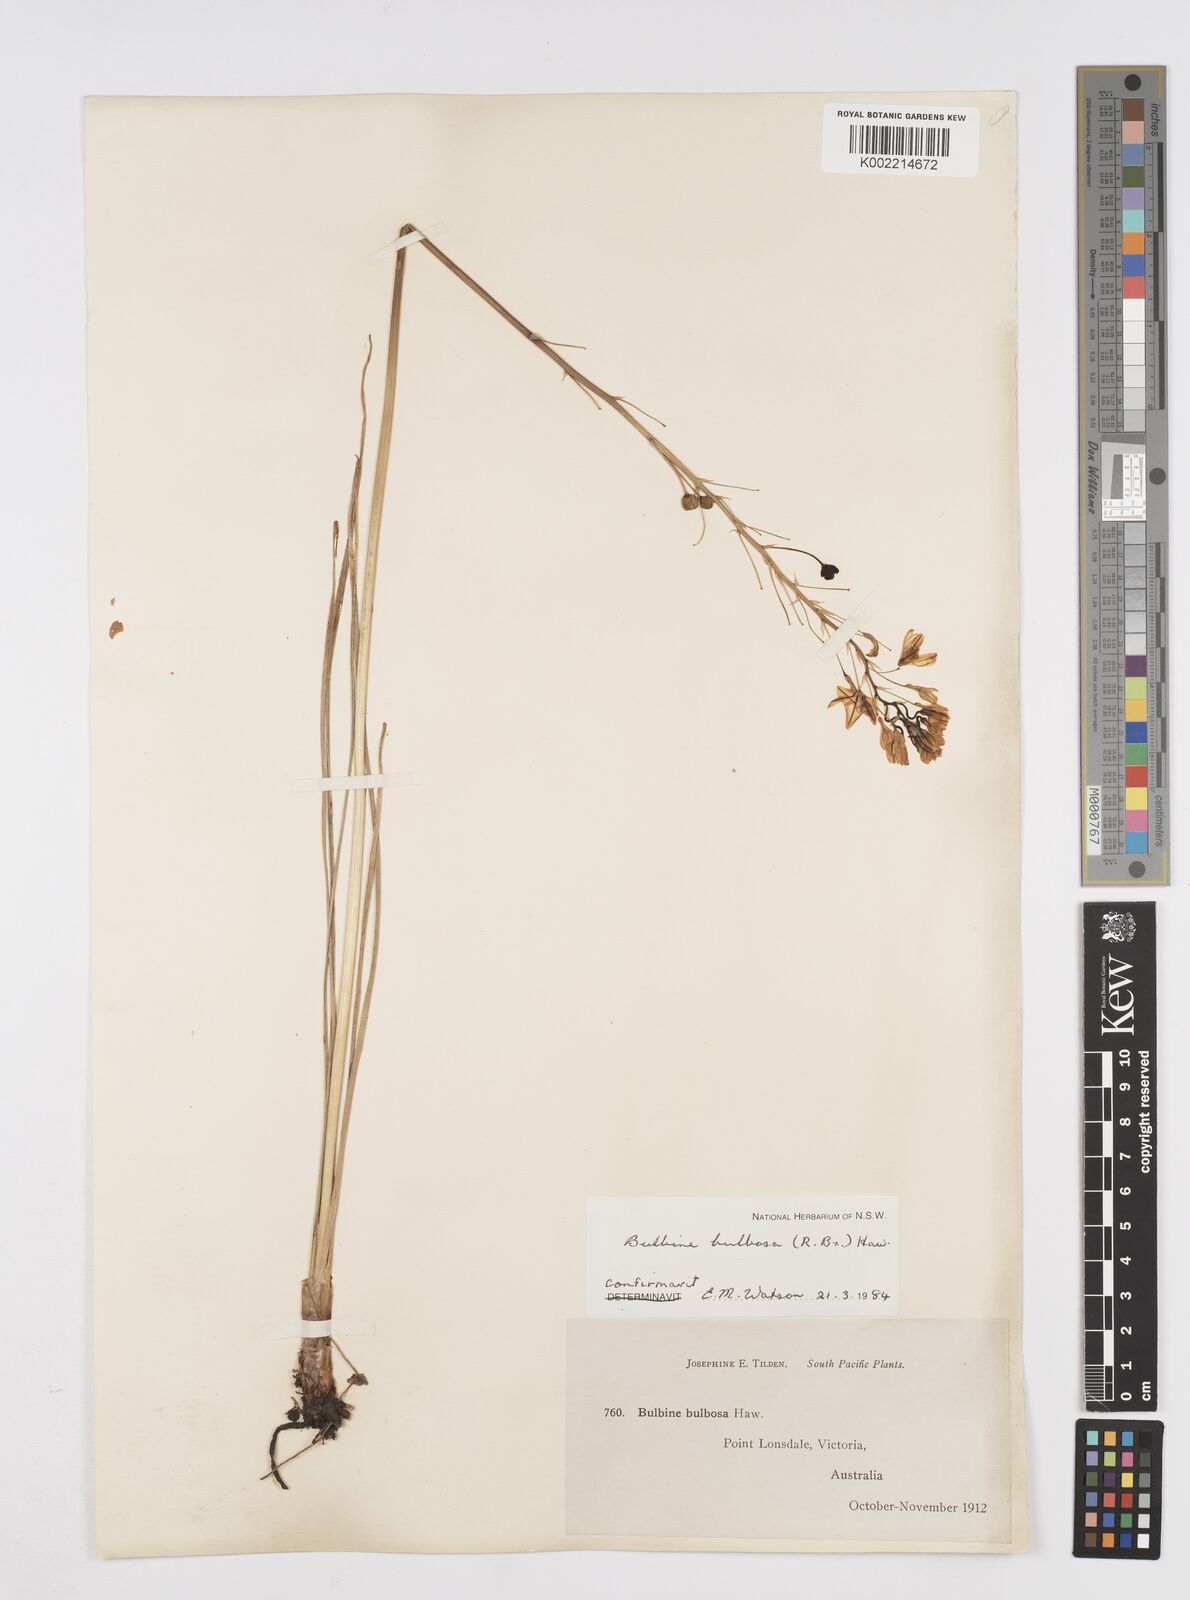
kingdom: Plantae
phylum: Tracheophyta
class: Liliopsida
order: Asparagales
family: Asphodelaceae
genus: Bulbine
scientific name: Bulbine bulbosa
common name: Golden-lily
